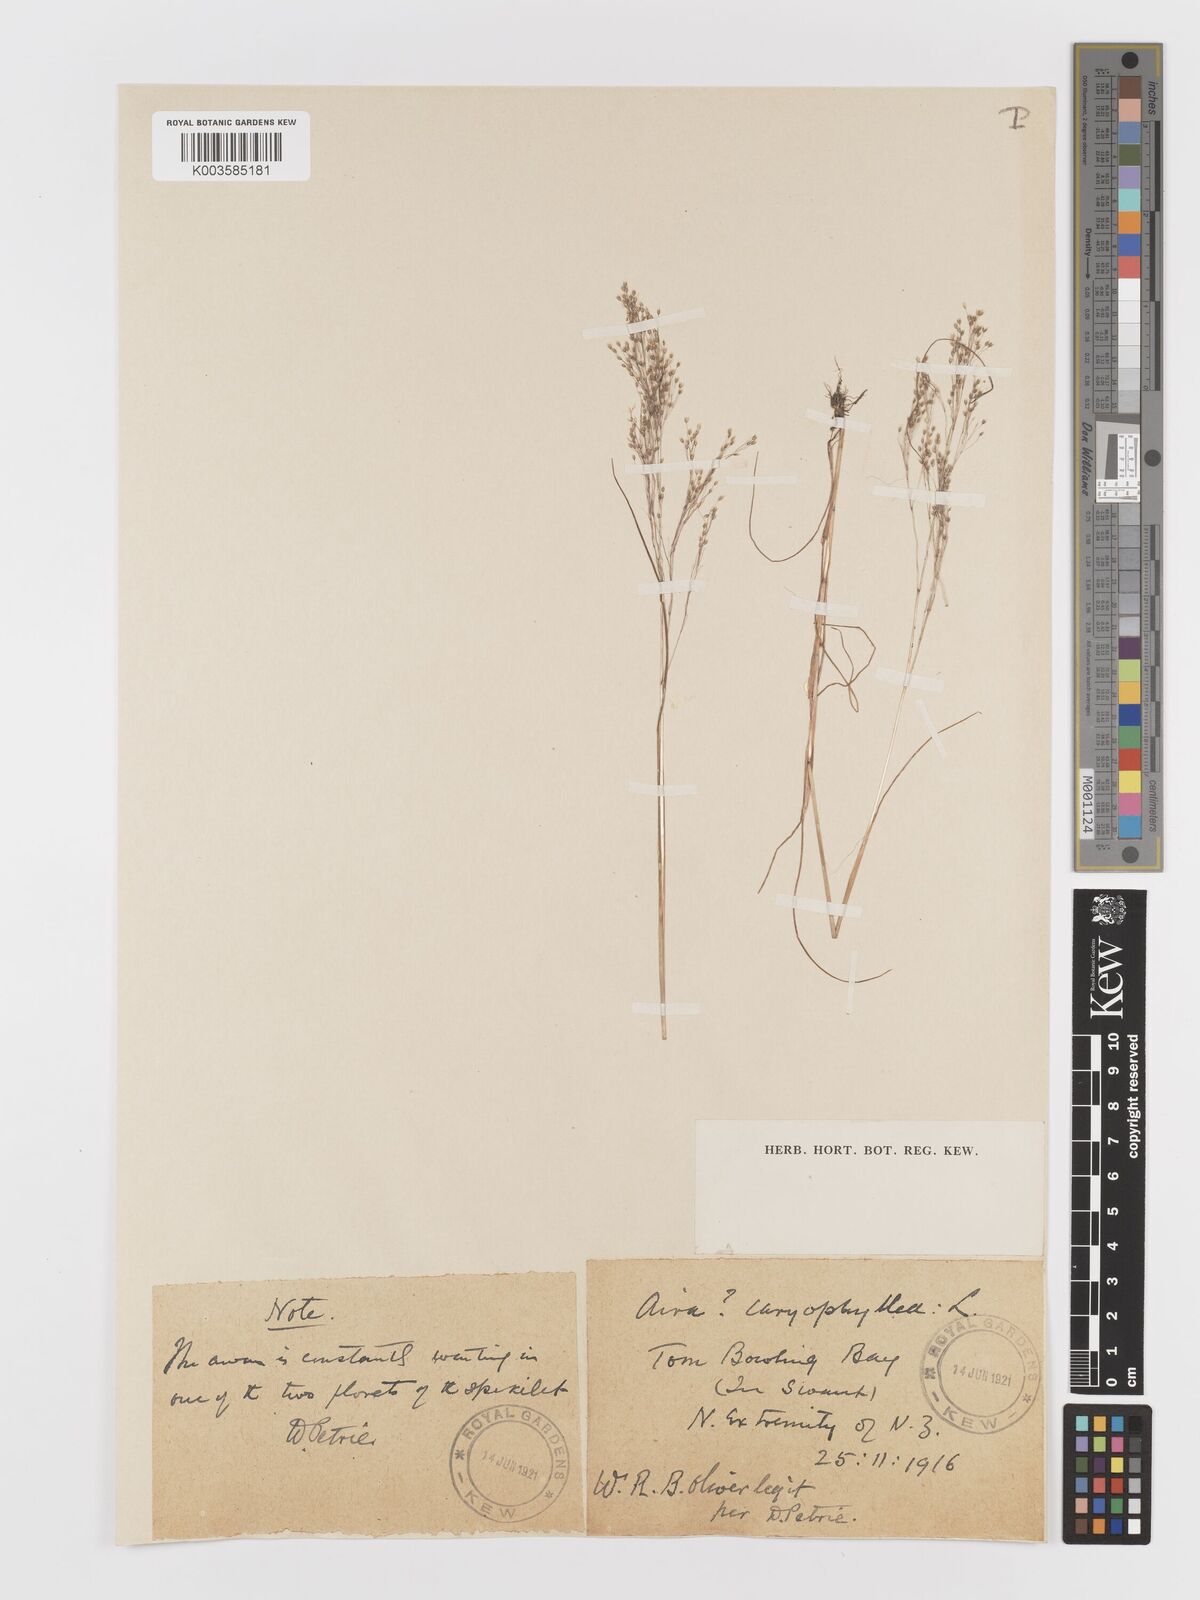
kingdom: Plantae
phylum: Tracheophyta
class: Liliopsida
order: Poales
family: Poaceae
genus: Aira
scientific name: Aira cupaniana
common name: Silver hairgrass
